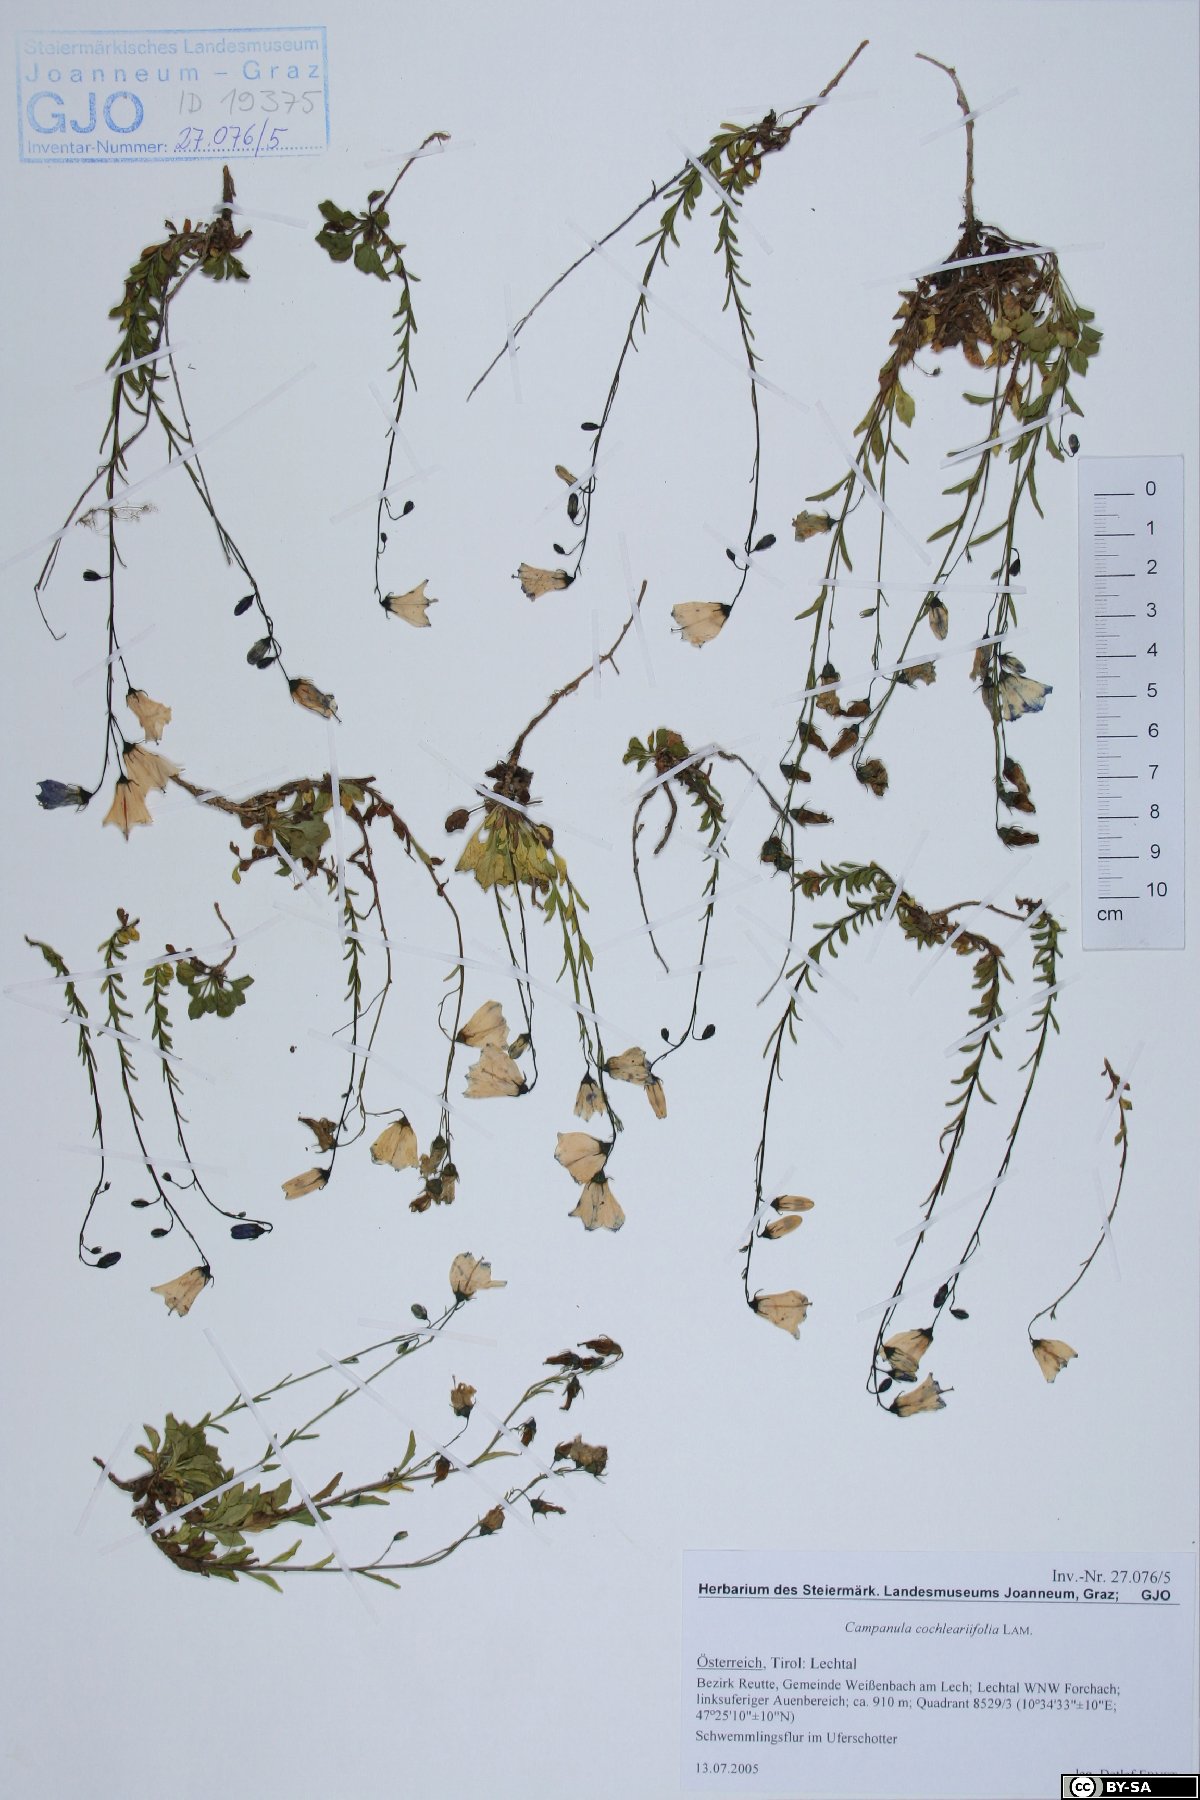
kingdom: Plantae
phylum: Tracheophyta
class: Magnoliopsida
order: Asterales
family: Campanulaceae
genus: Campanula
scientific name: Campanula cochleariifolia
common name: Fairies'-thimbles
